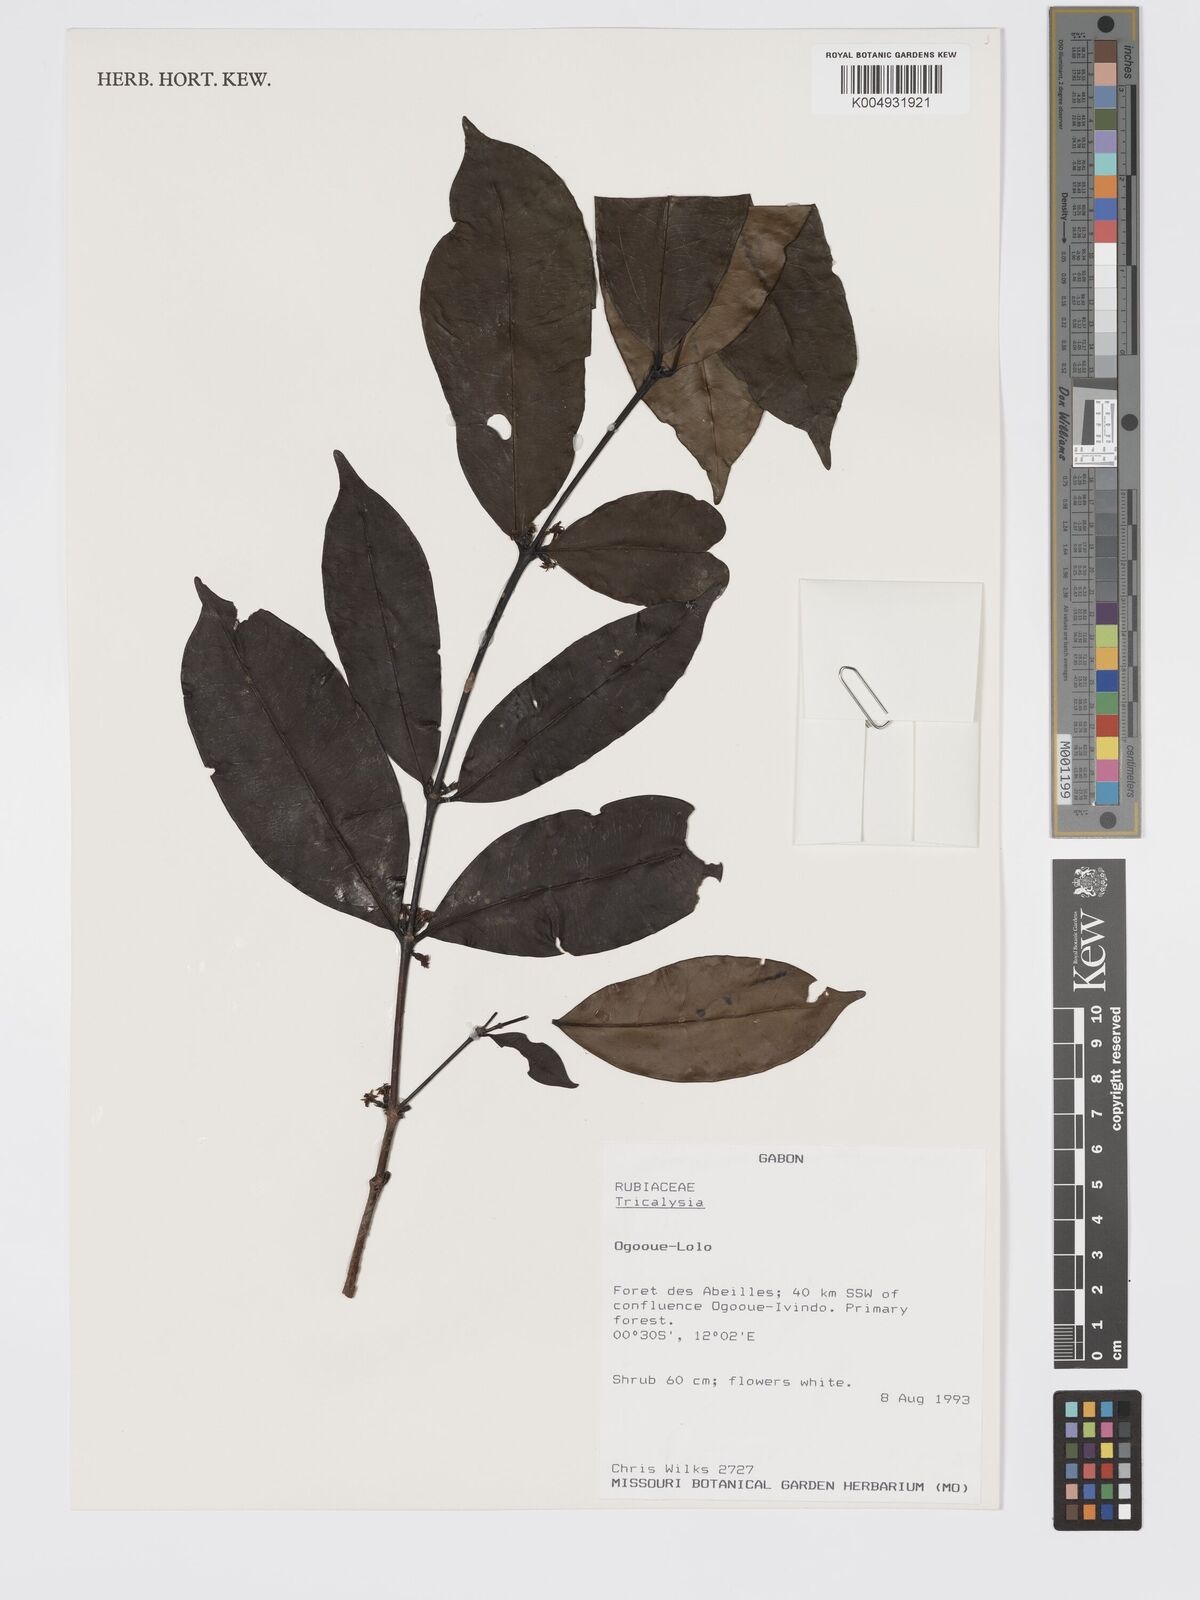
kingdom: Plantae
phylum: Tracheophyta
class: Magnoliopsida
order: Gentianales
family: Rubiaceae
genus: Tricalysia
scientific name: Tricalysia
